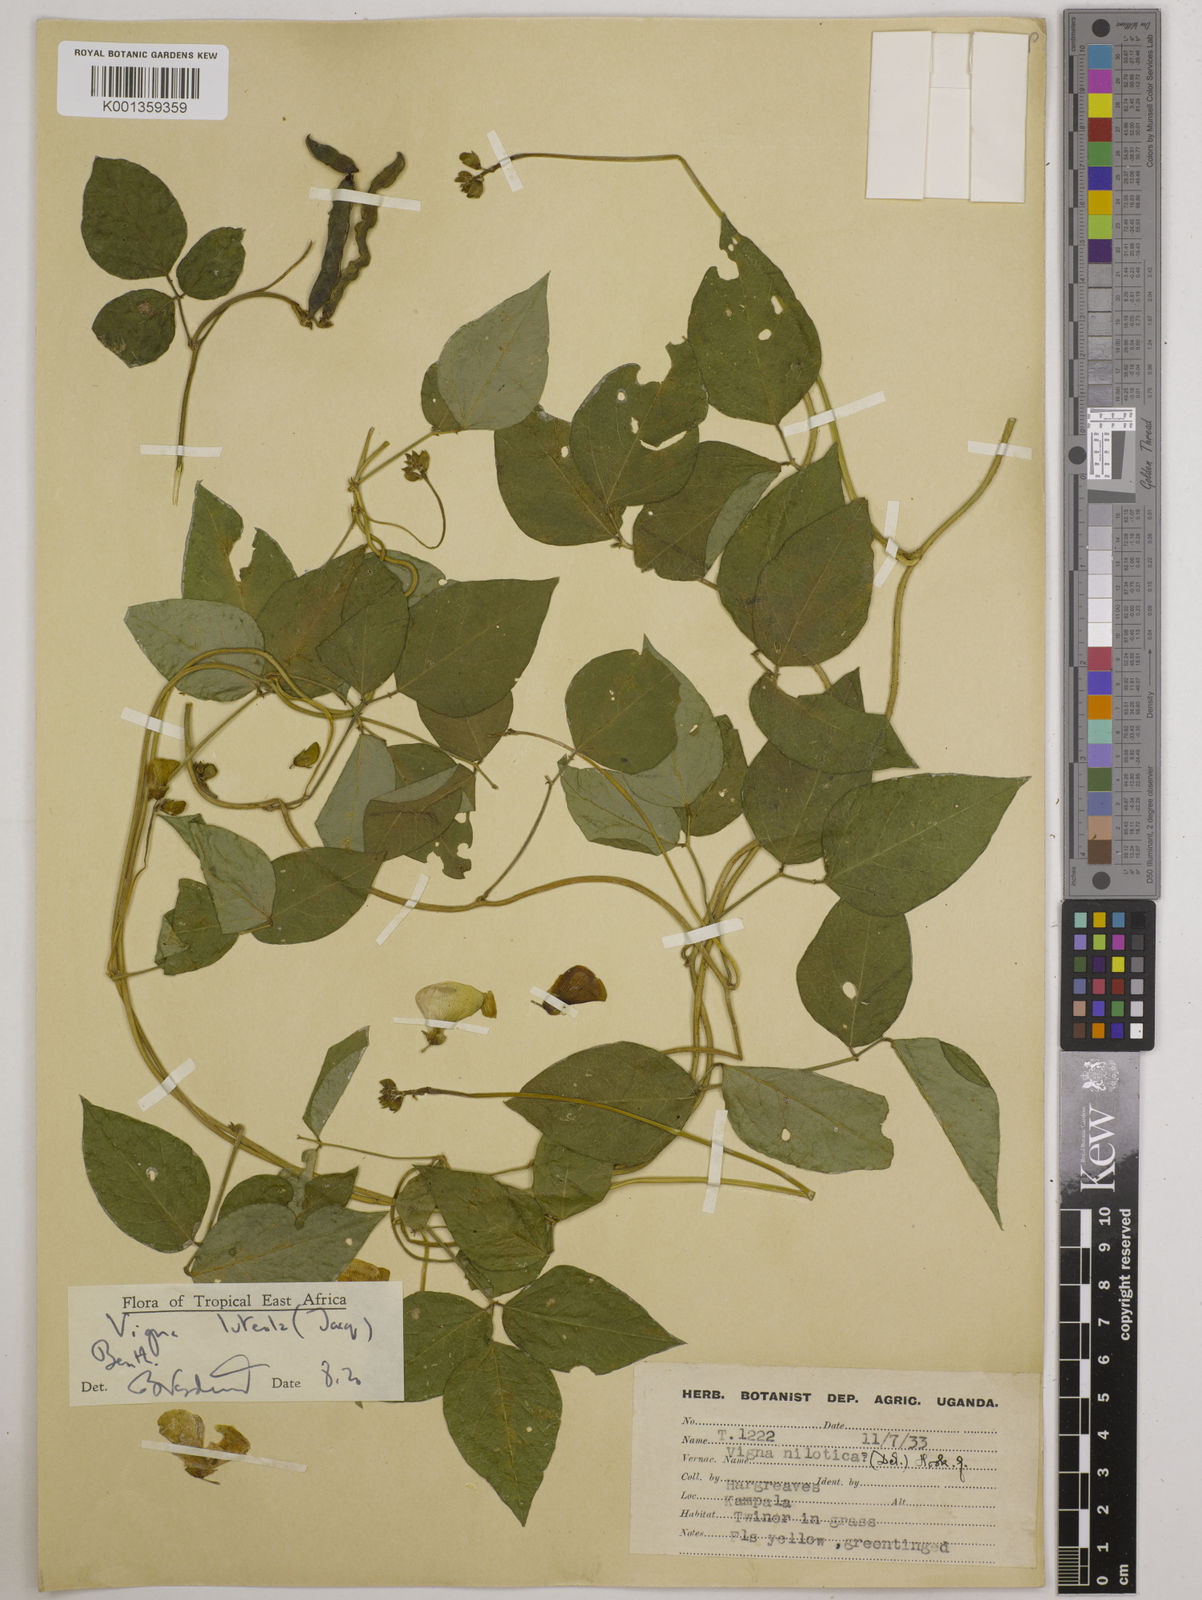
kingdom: Plantae
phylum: Tracheophyta
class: Magnoliopsida
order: Fabales
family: Fabaceae
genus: Vigna
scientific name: Vigna luteola
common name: Hairypod cowpea
